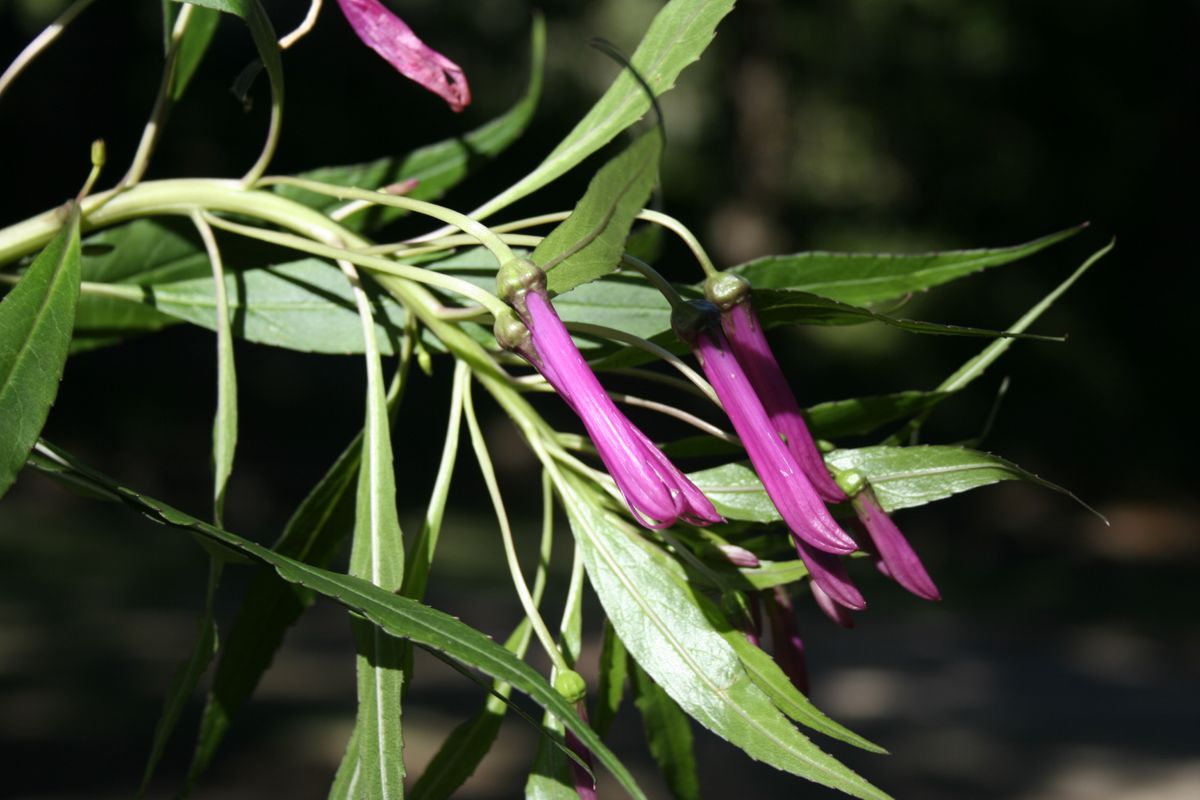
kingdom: Plantae
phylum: Tracheophyta
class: Magnoliopsida
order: Asterales
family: Campanulaceae
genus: Lobelia
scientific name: Lobelia tatea
